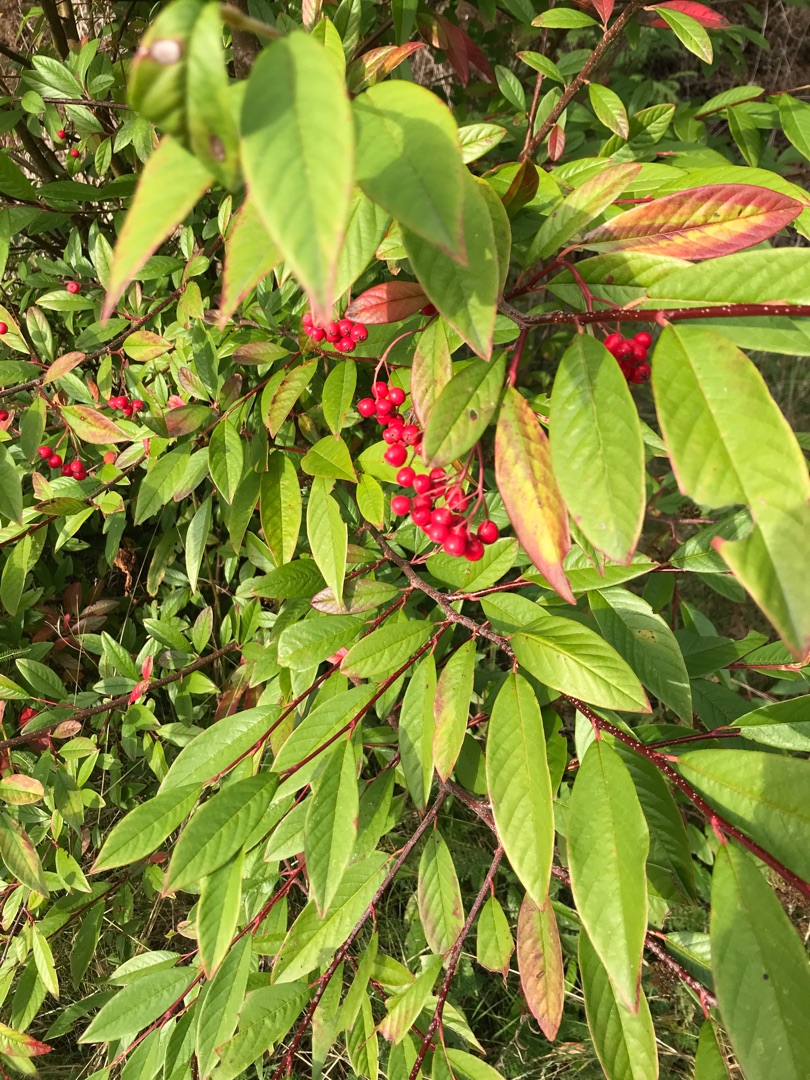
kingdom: Plantae
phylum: Tracheophyta
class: Magnoliopsida
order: Rosales
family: Rosaceae
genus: Cotoneaster
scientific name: Cotoneaster salicifolius
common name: Pilebladet dværgmispel
